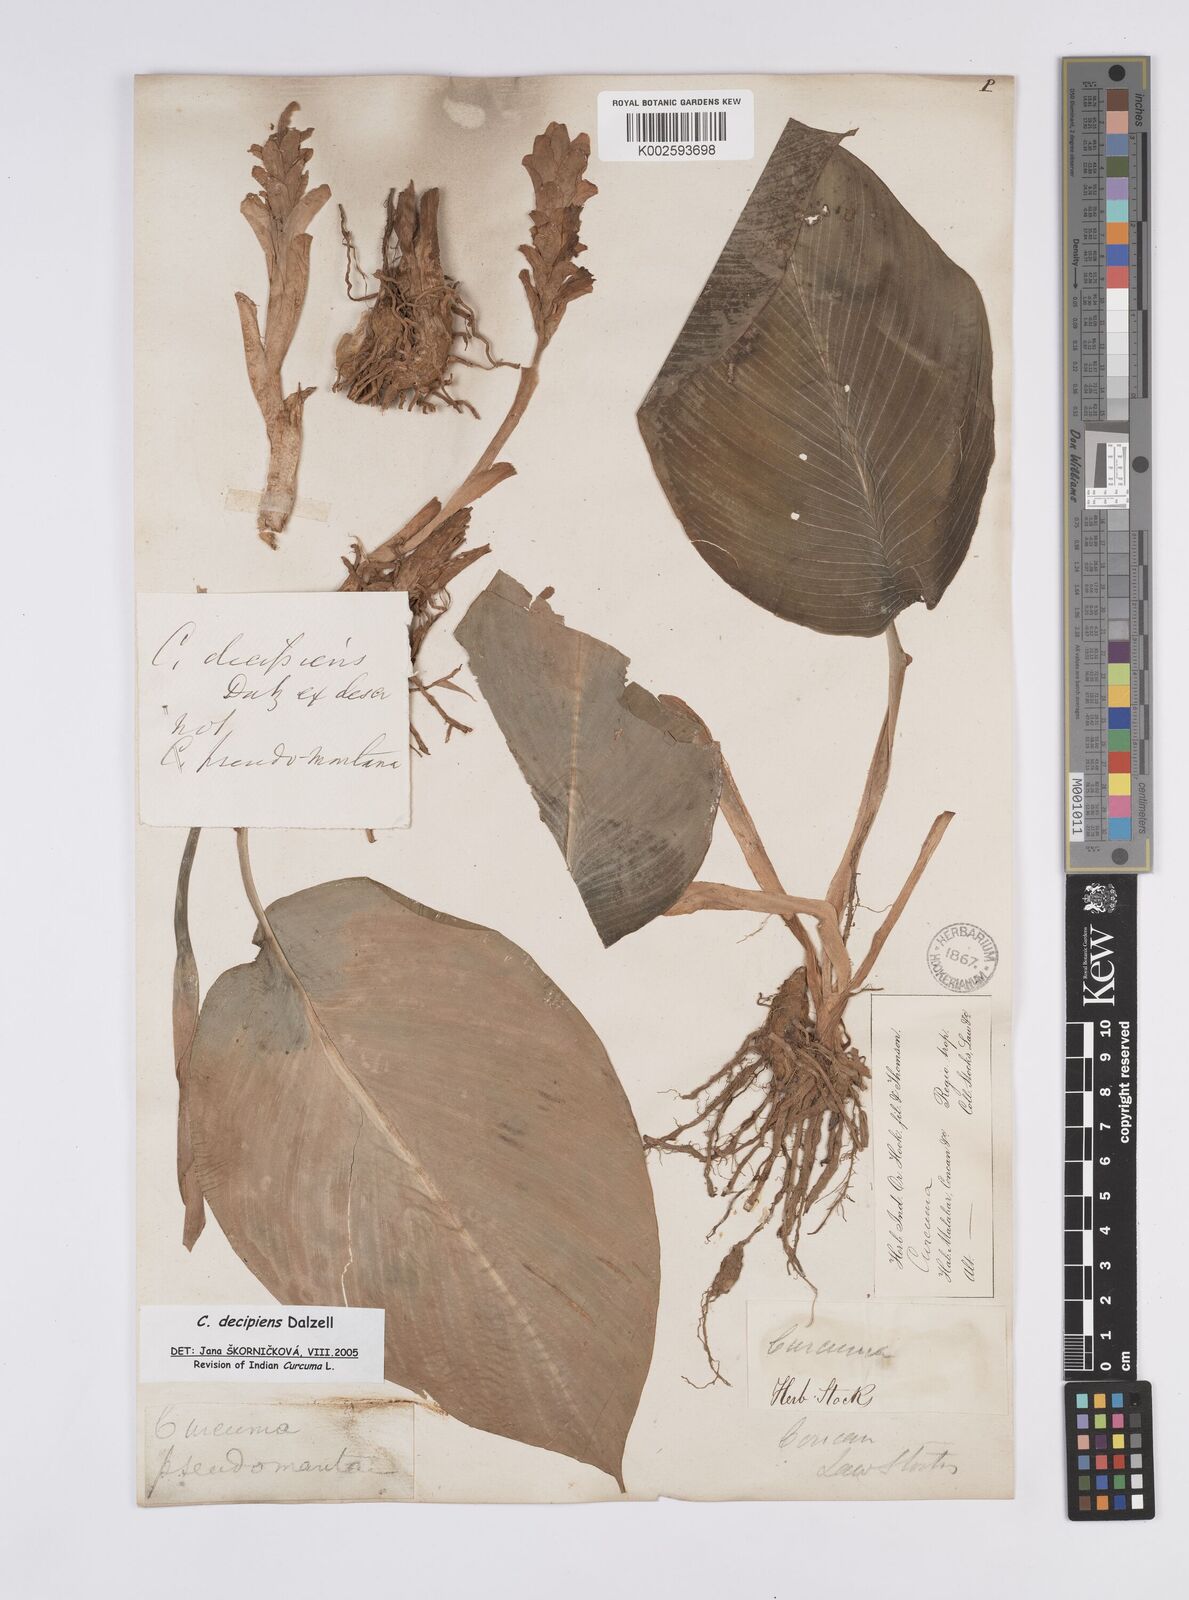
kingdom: Plantae
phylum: Tracheophyta
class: Liliopsida
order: Zingiberales
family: Zingiberaceae
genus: Curcuma
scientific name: Curcuma decipiens
